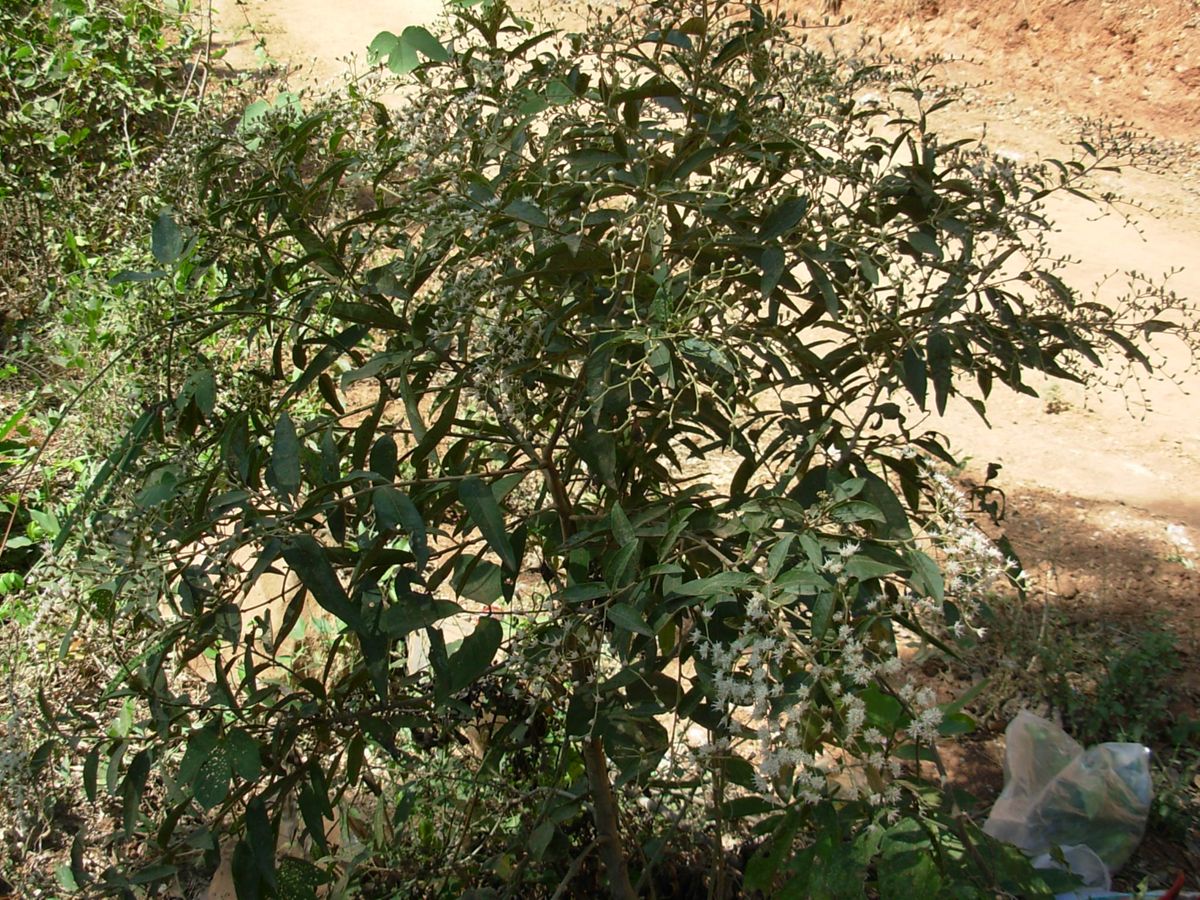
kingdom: Plantae
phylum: Tracheophyta
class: Magnoliopsida
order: Asterales
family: Asteraceae
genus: Vernonanthura
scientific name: Vernonanthura patens
